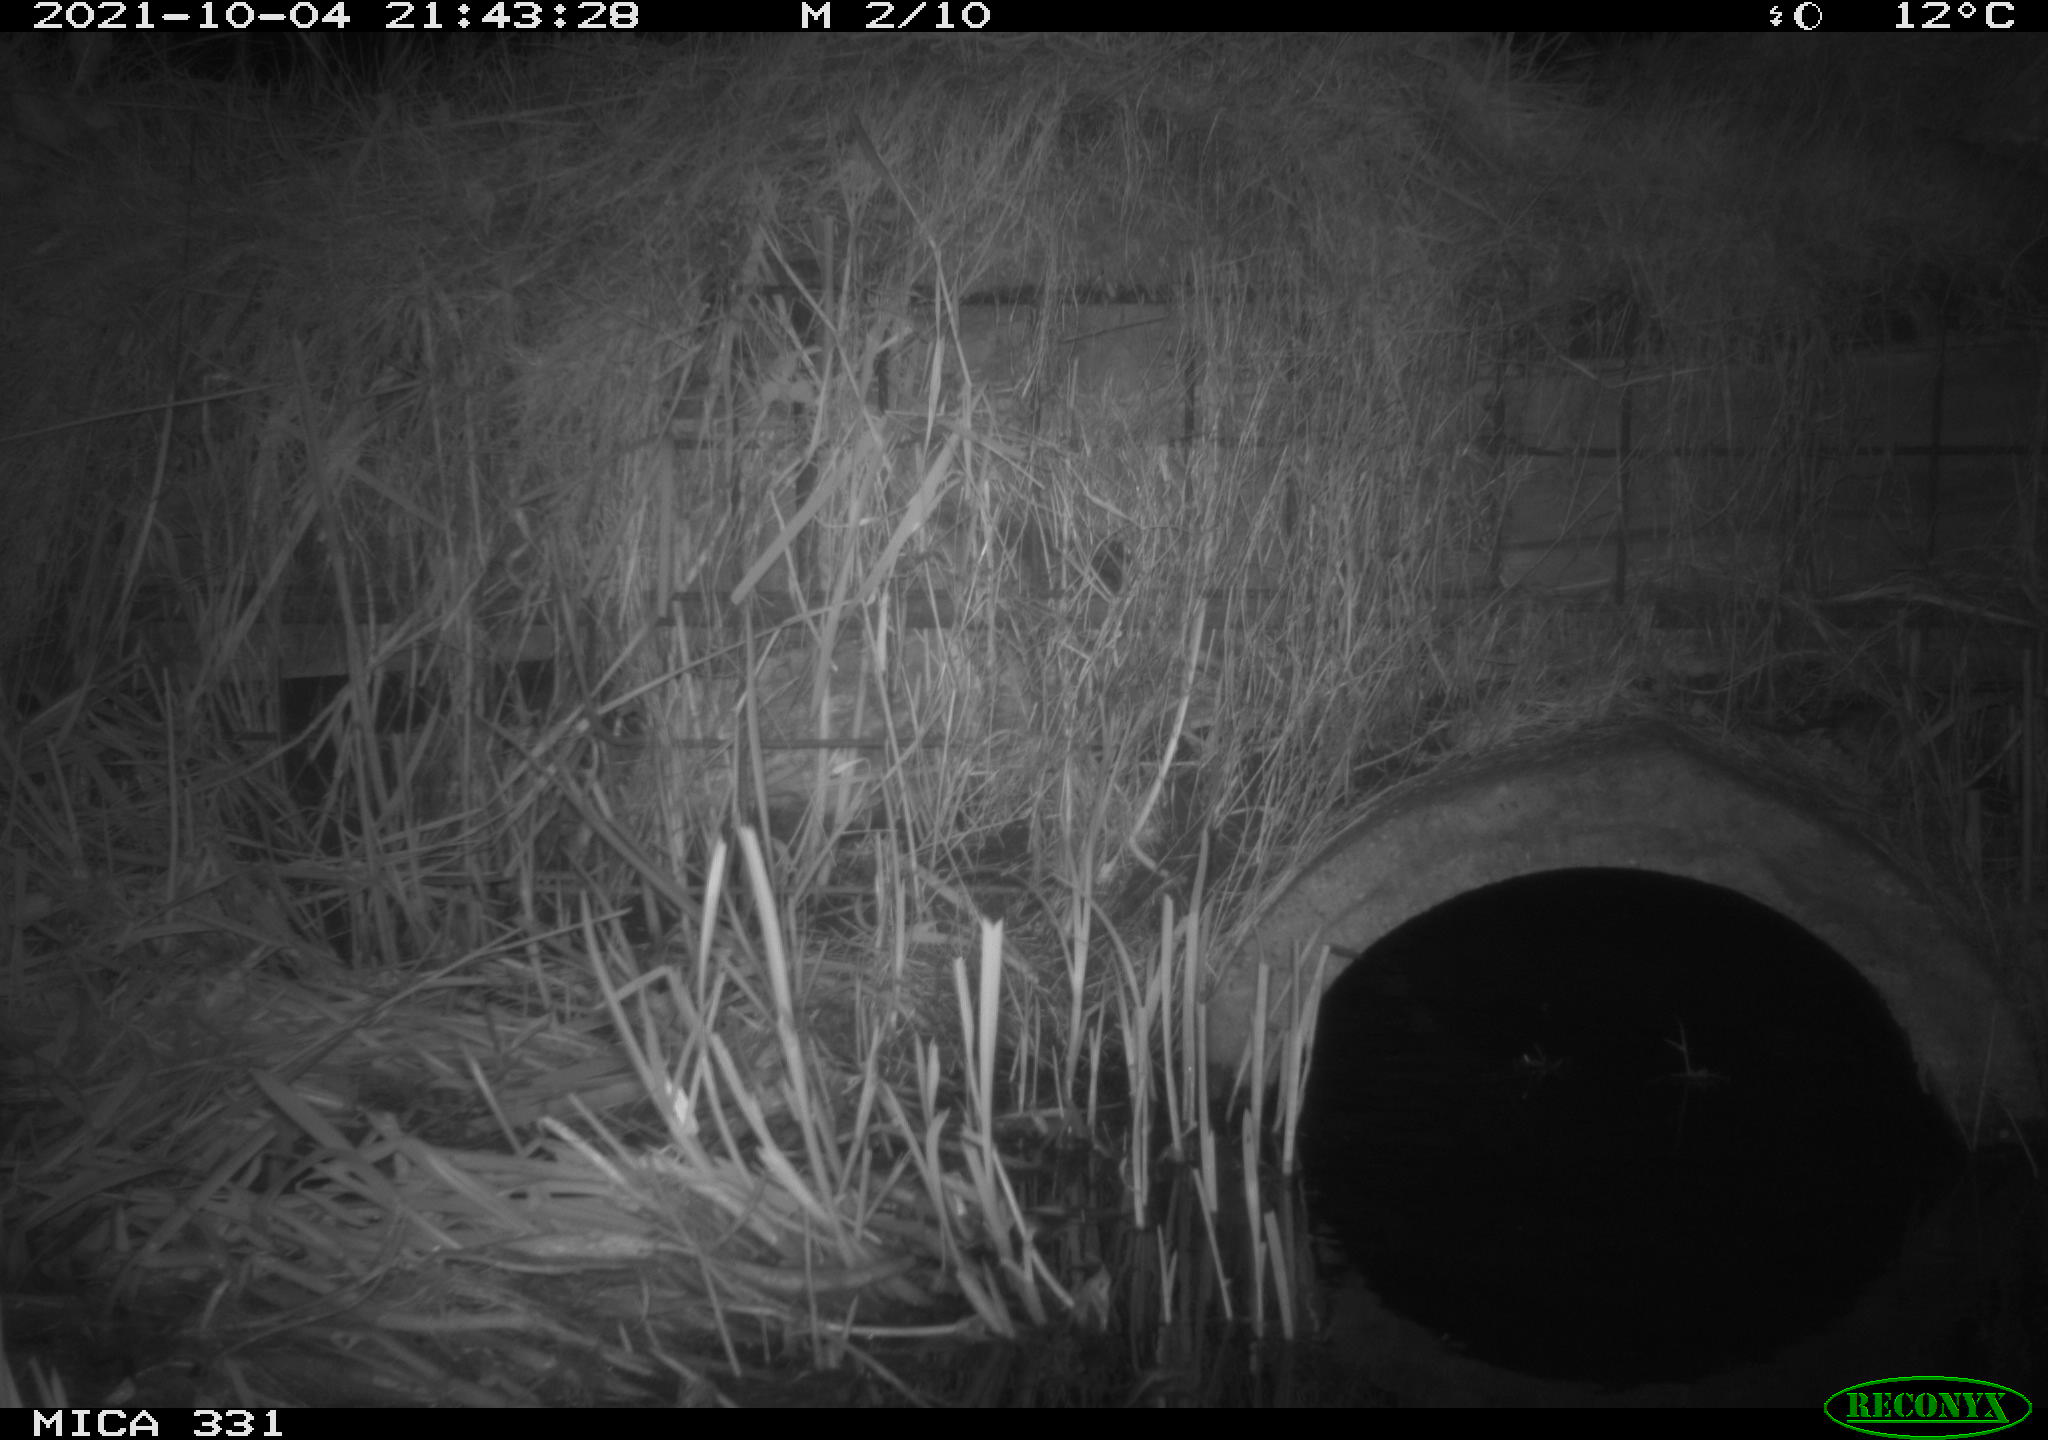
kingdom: Animalia
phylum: Chordata
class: Mammalia
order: Rodentia
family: Muridae
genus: Rattus
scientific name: Rattus norvegicus
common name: Brown rat
